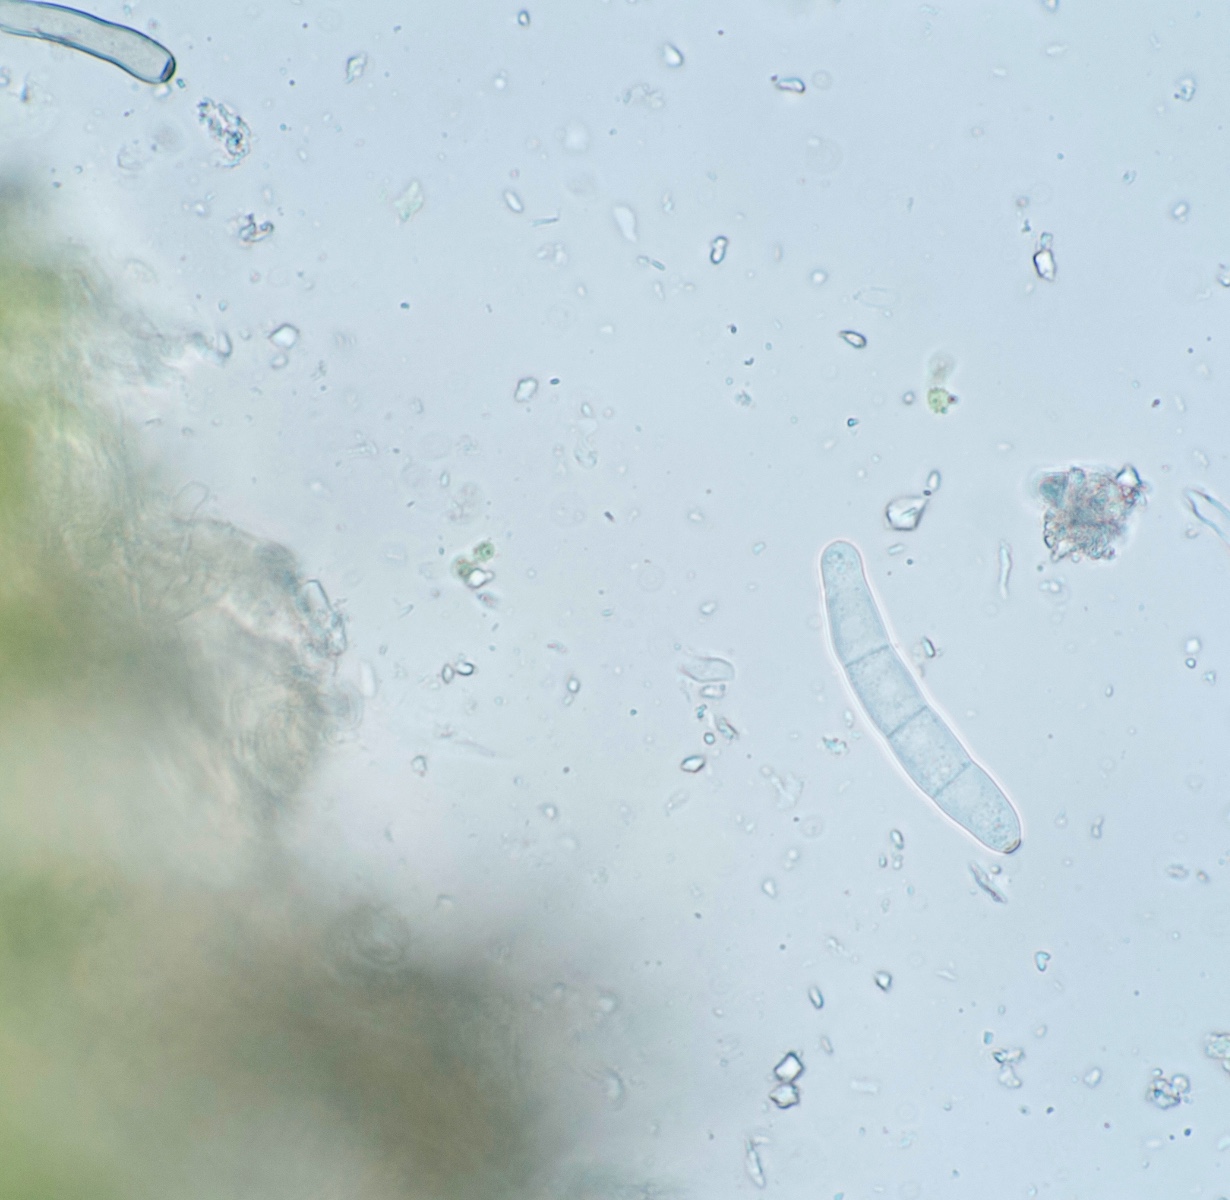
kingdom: Fungi
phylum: Ascomycota
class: Dothideomycetes
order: Capnodiales
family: Mycosphaerellaceae
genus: Ramularia
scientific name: Ramularia
